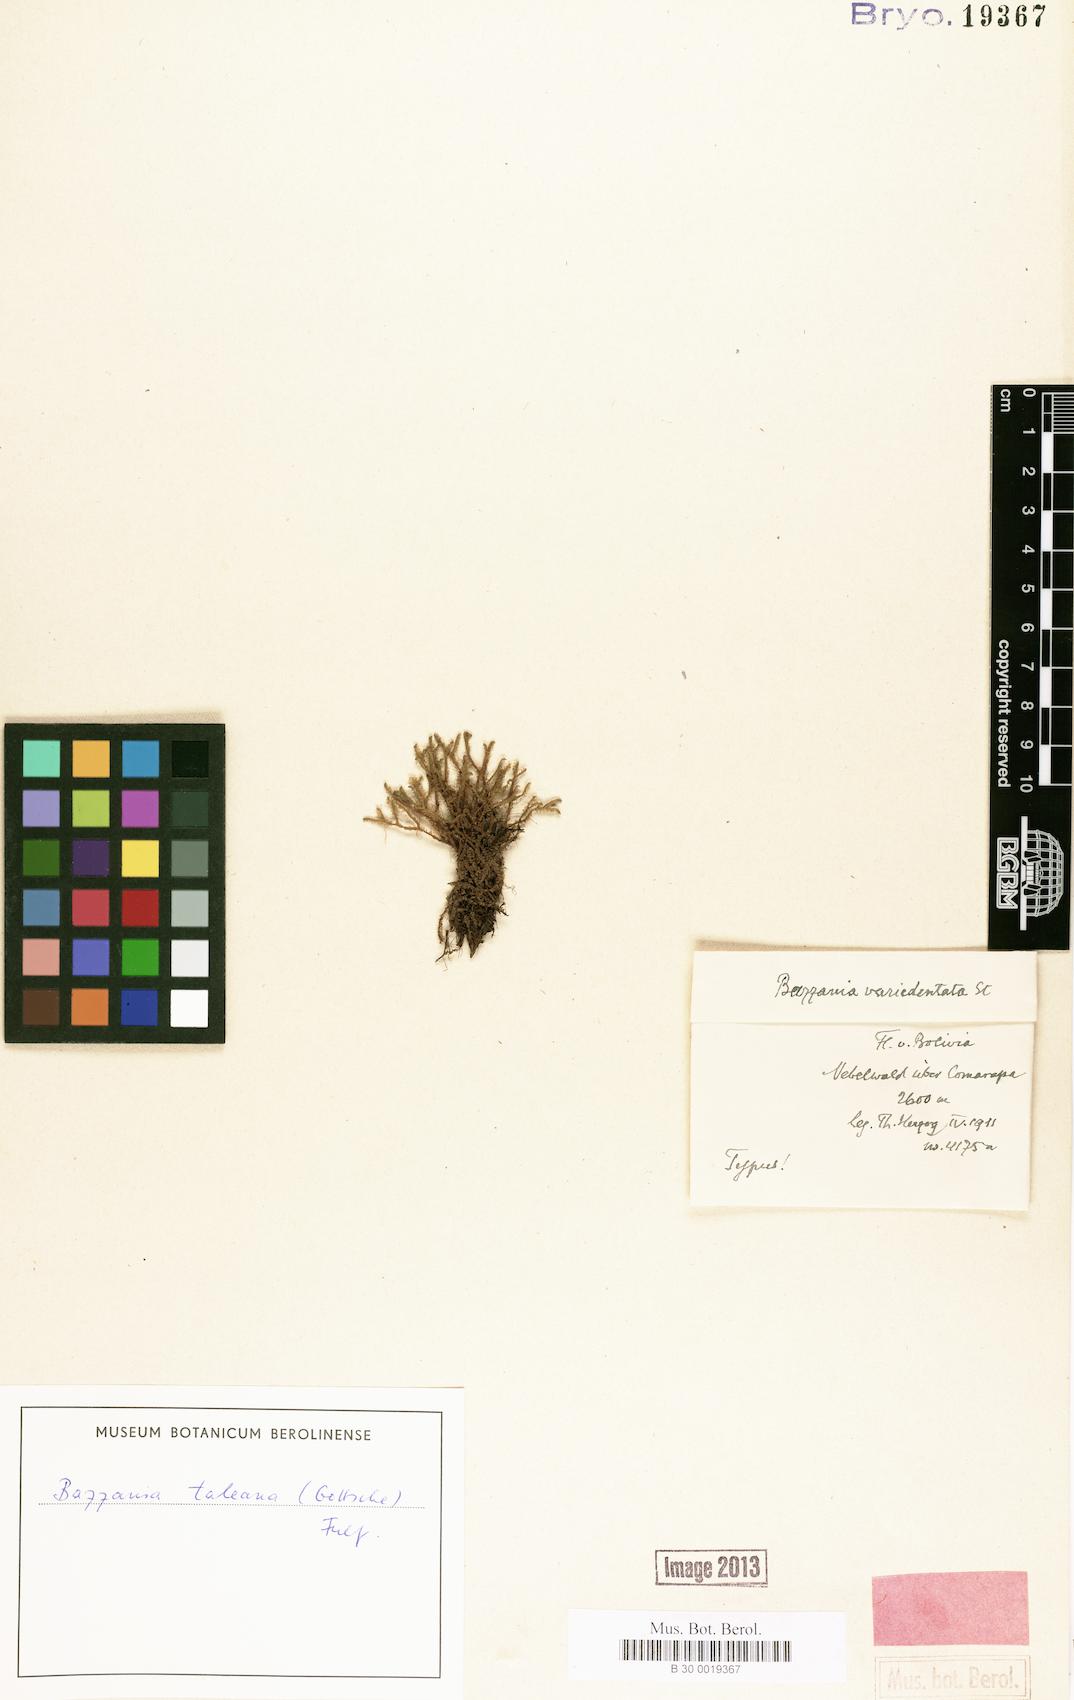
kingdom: Plantae
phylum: Marchantiophyta
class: Jungermanniopsida
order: Jungermanniales
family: Lepidoziaceae
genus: Bazzania
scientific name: Bazzania affinis
